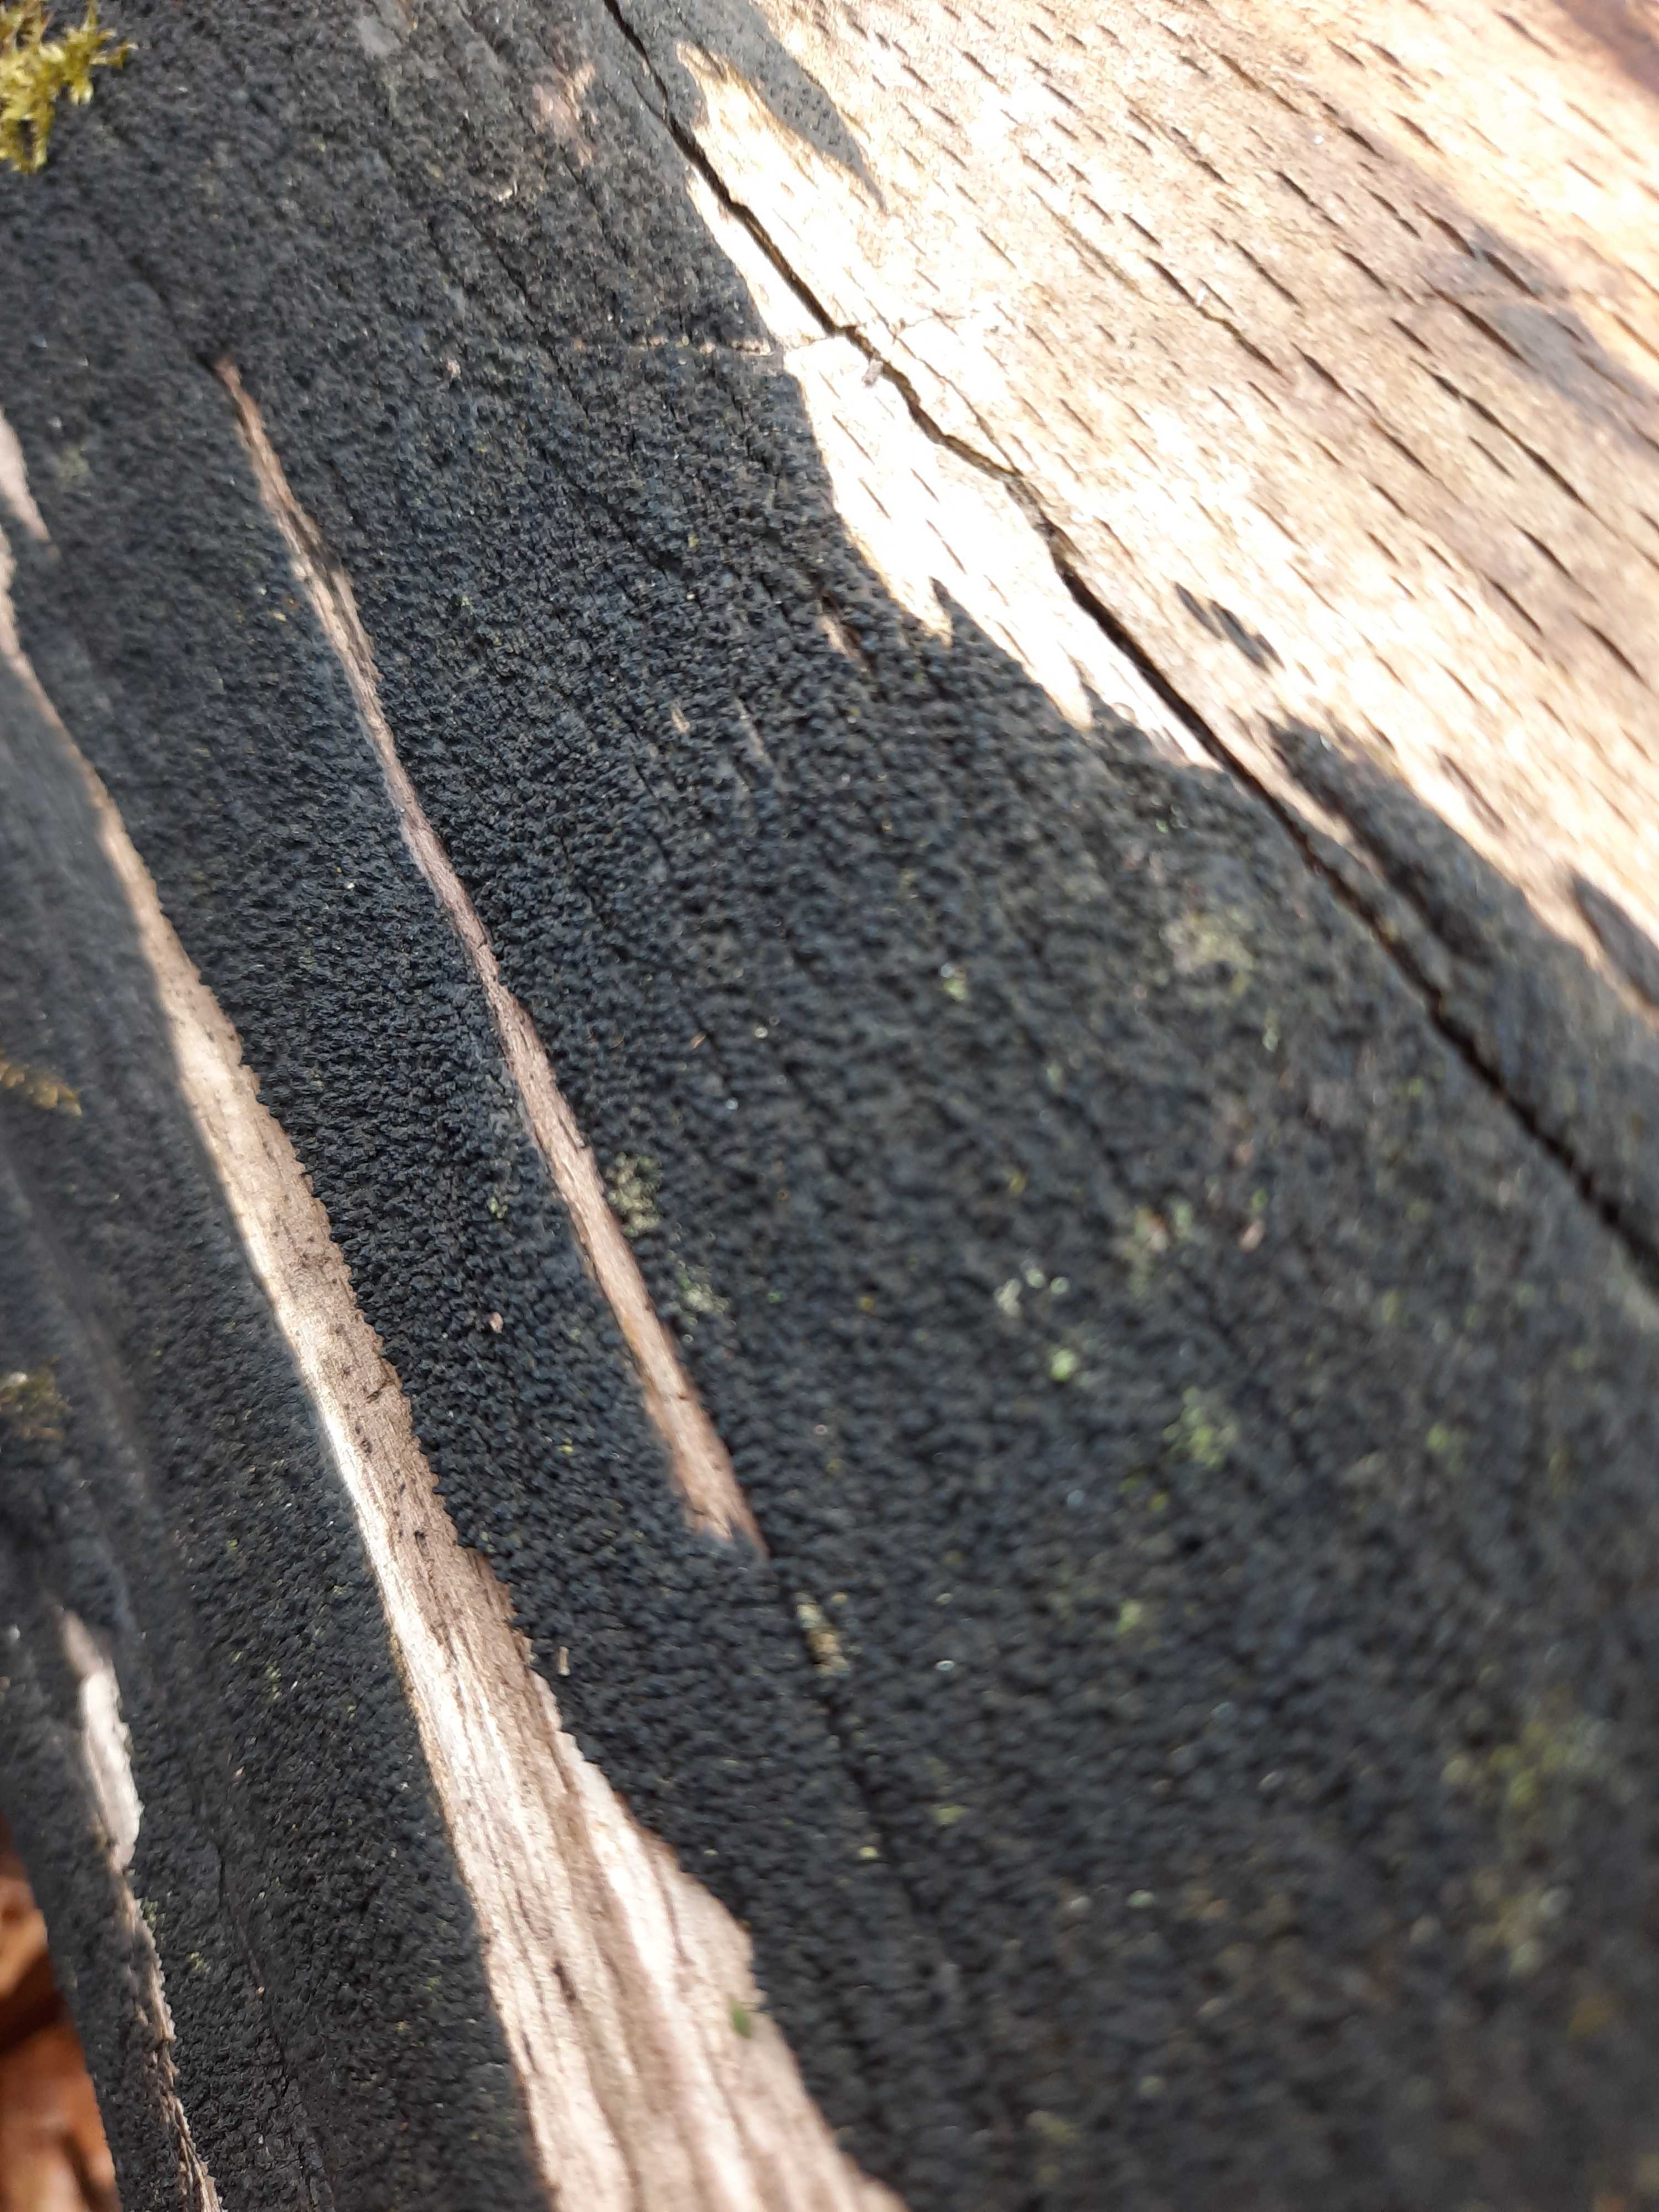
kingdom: Fungi
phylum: Ascomycota
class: Sordariomycetes
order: Xylariales
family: Diatrypaceae
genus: Eutypa
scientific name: Eutypa spinosa
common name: grov kulskorpe
